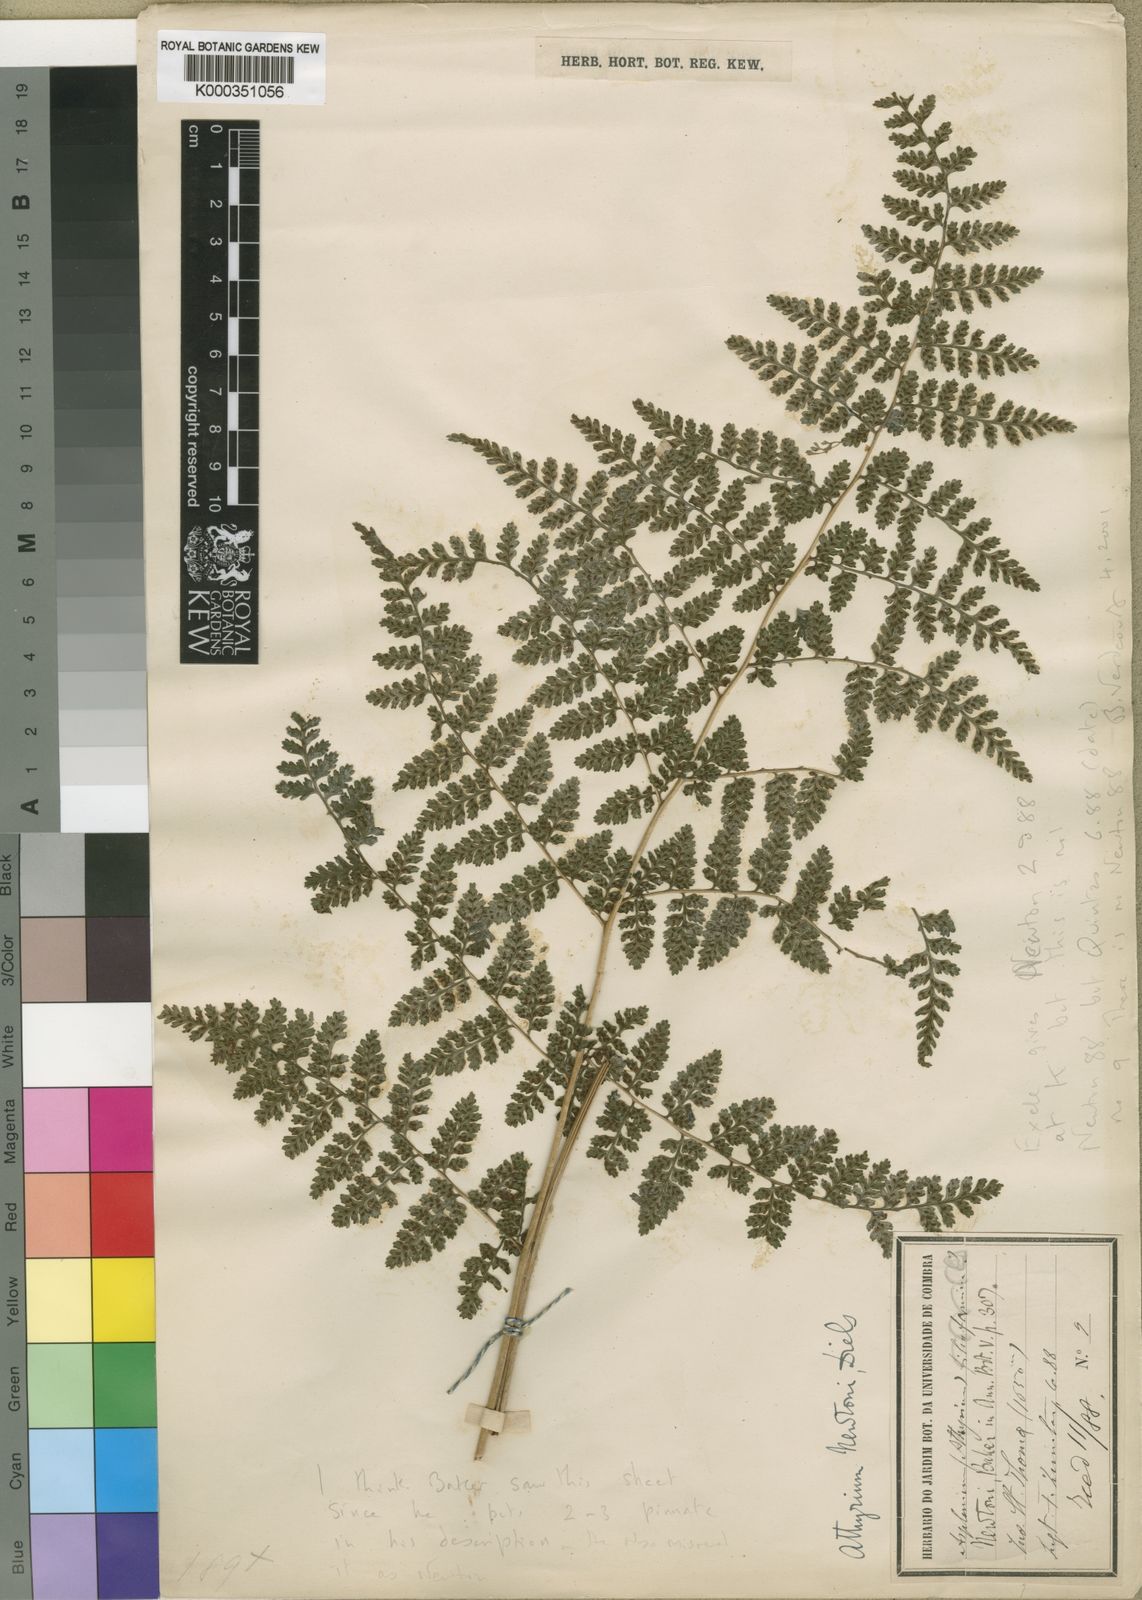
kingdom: Plantae
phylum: Tracheophyta
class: Polypodiopsida
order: Polypodiales
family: Athyriaceae
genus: Athyrium
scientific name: Athyrium newtonii
